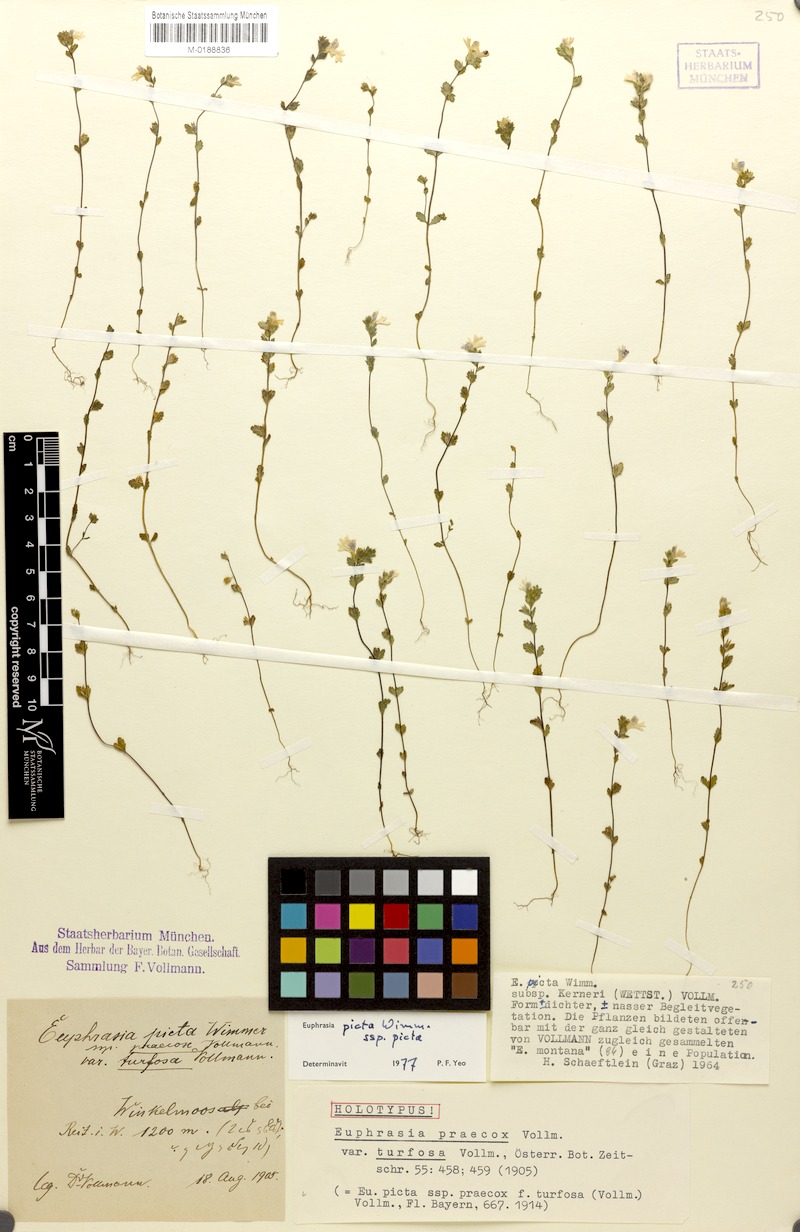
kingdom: Plantae
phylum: Tracheophyta
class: Magnoliopsida
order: Lamiales
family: Orobanchaceae
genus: Euphrasia
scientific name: Euphrasia picta
